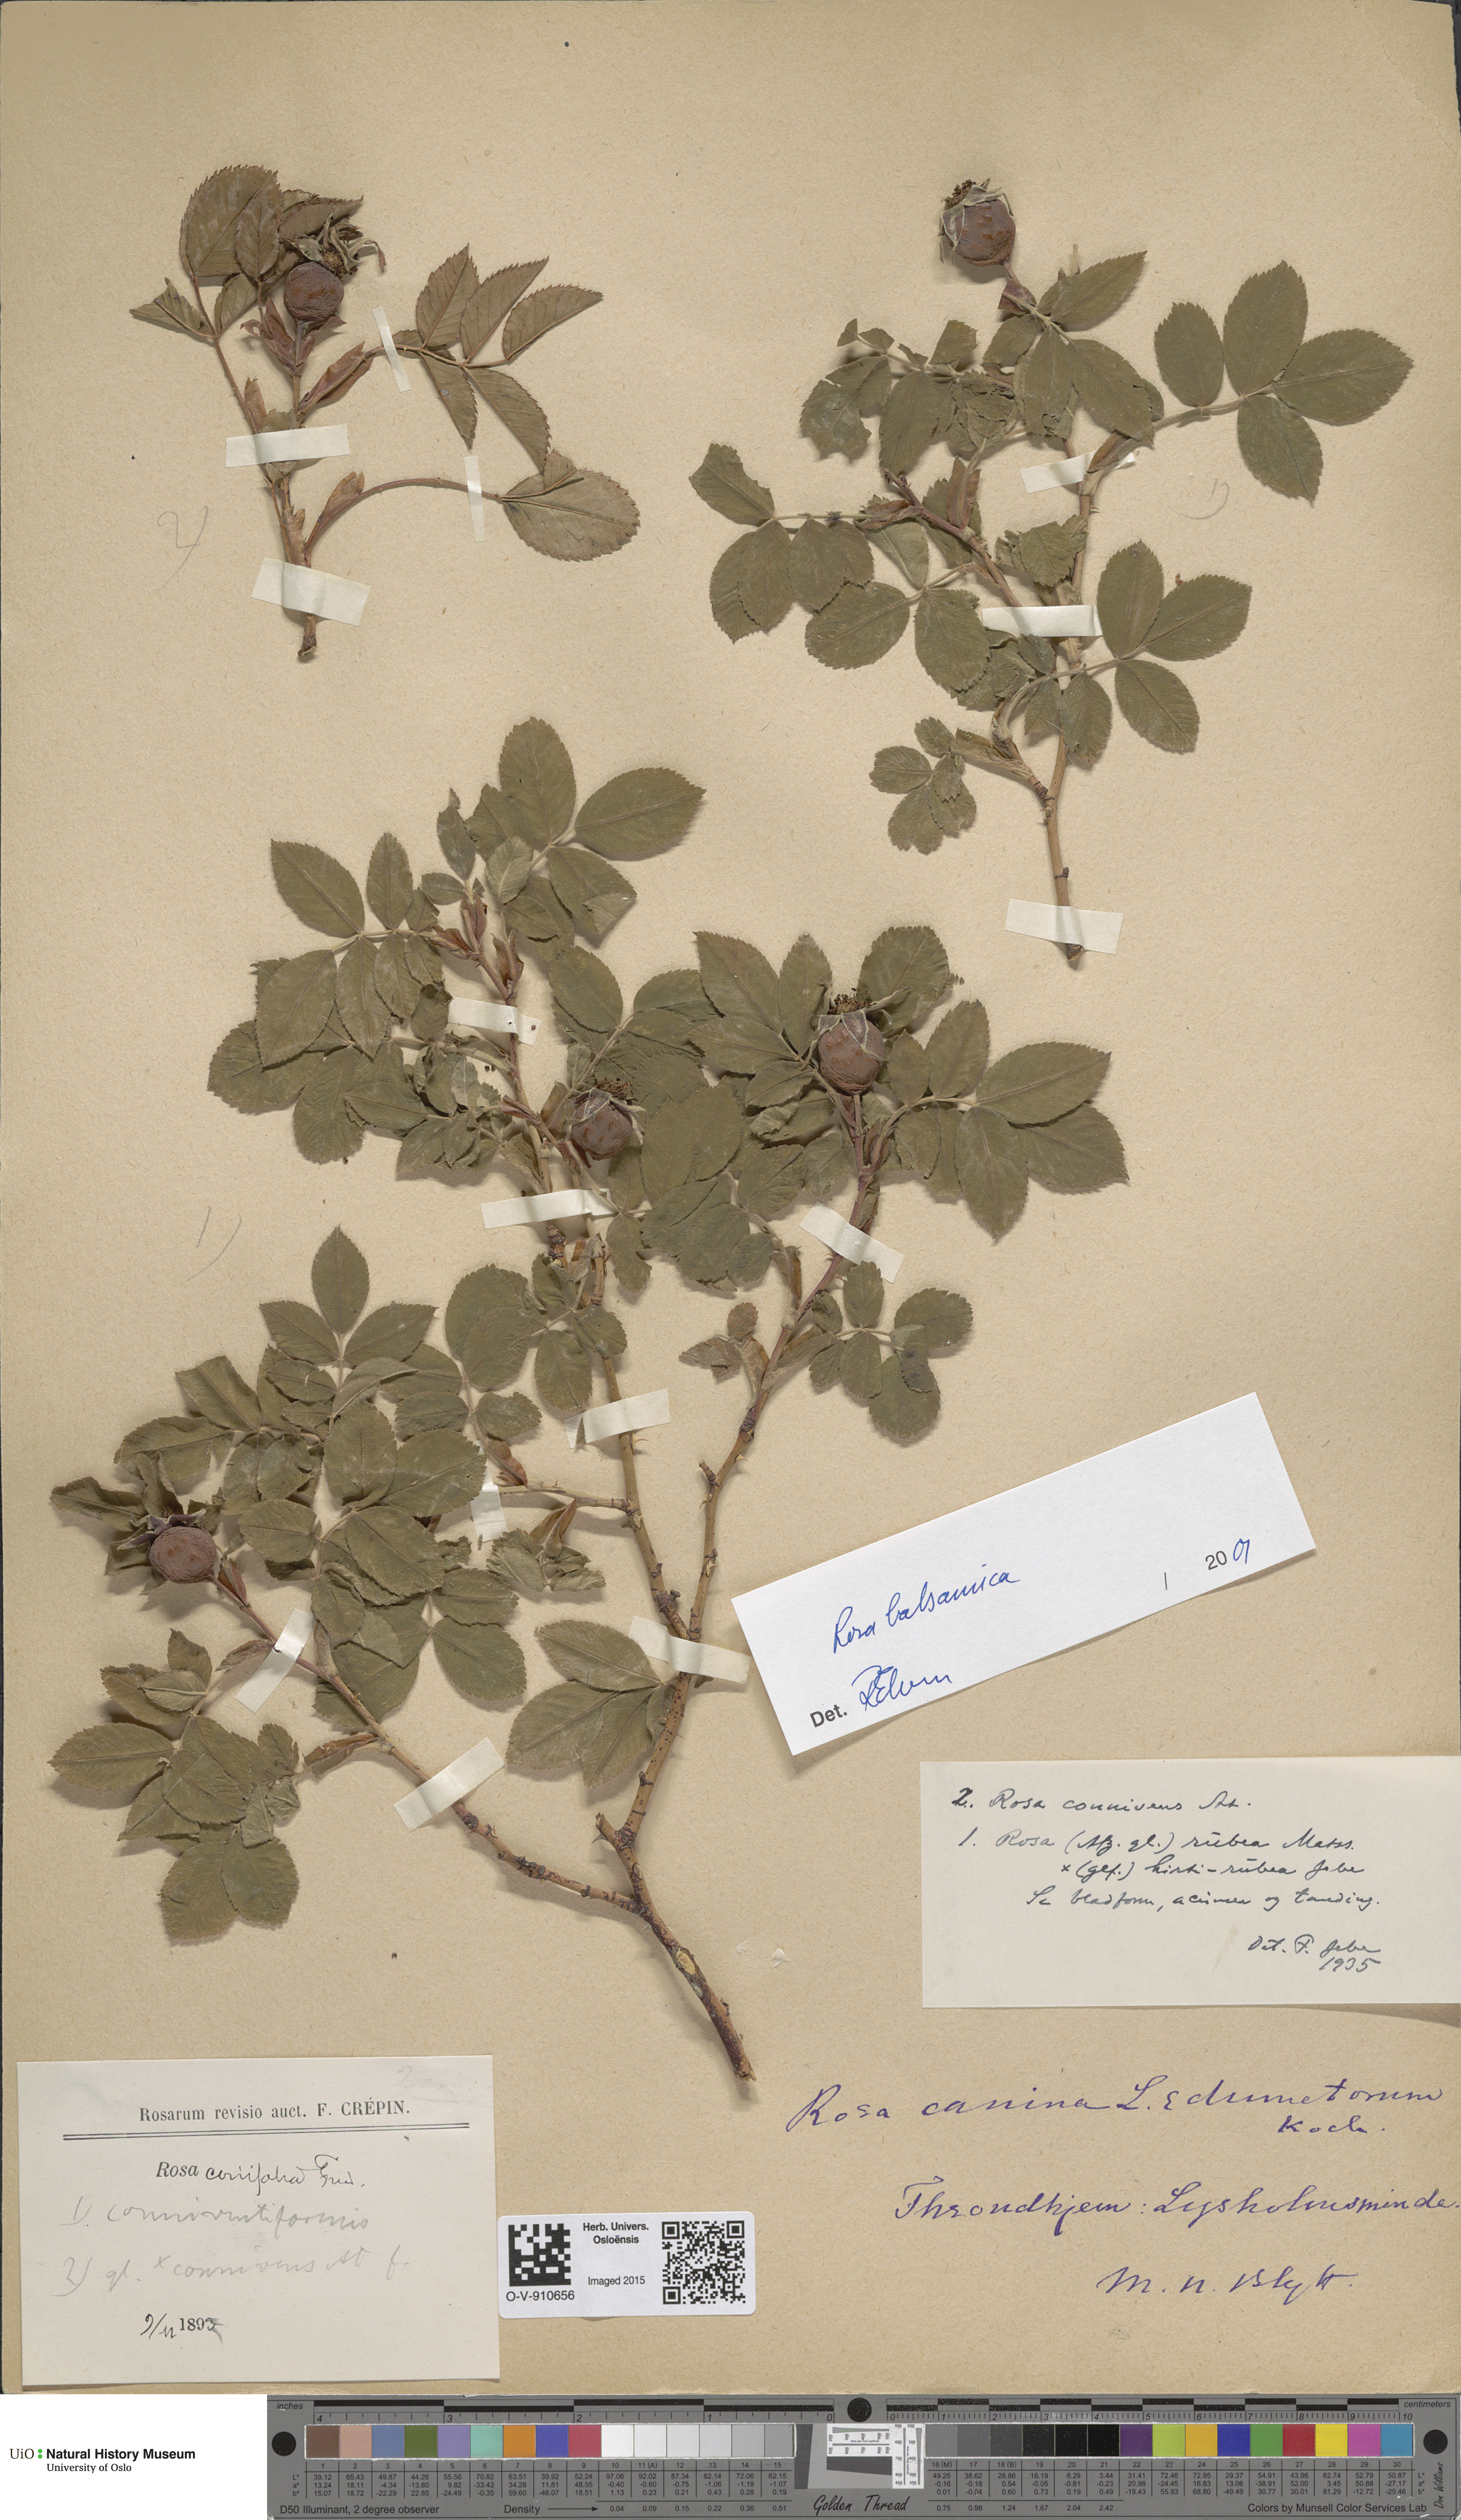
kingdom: Plantae
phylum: Tracheophyta
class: Magnoliopsida
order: Rosales
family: Rosaceae
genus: Rosa
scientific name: Rosa balsamica
